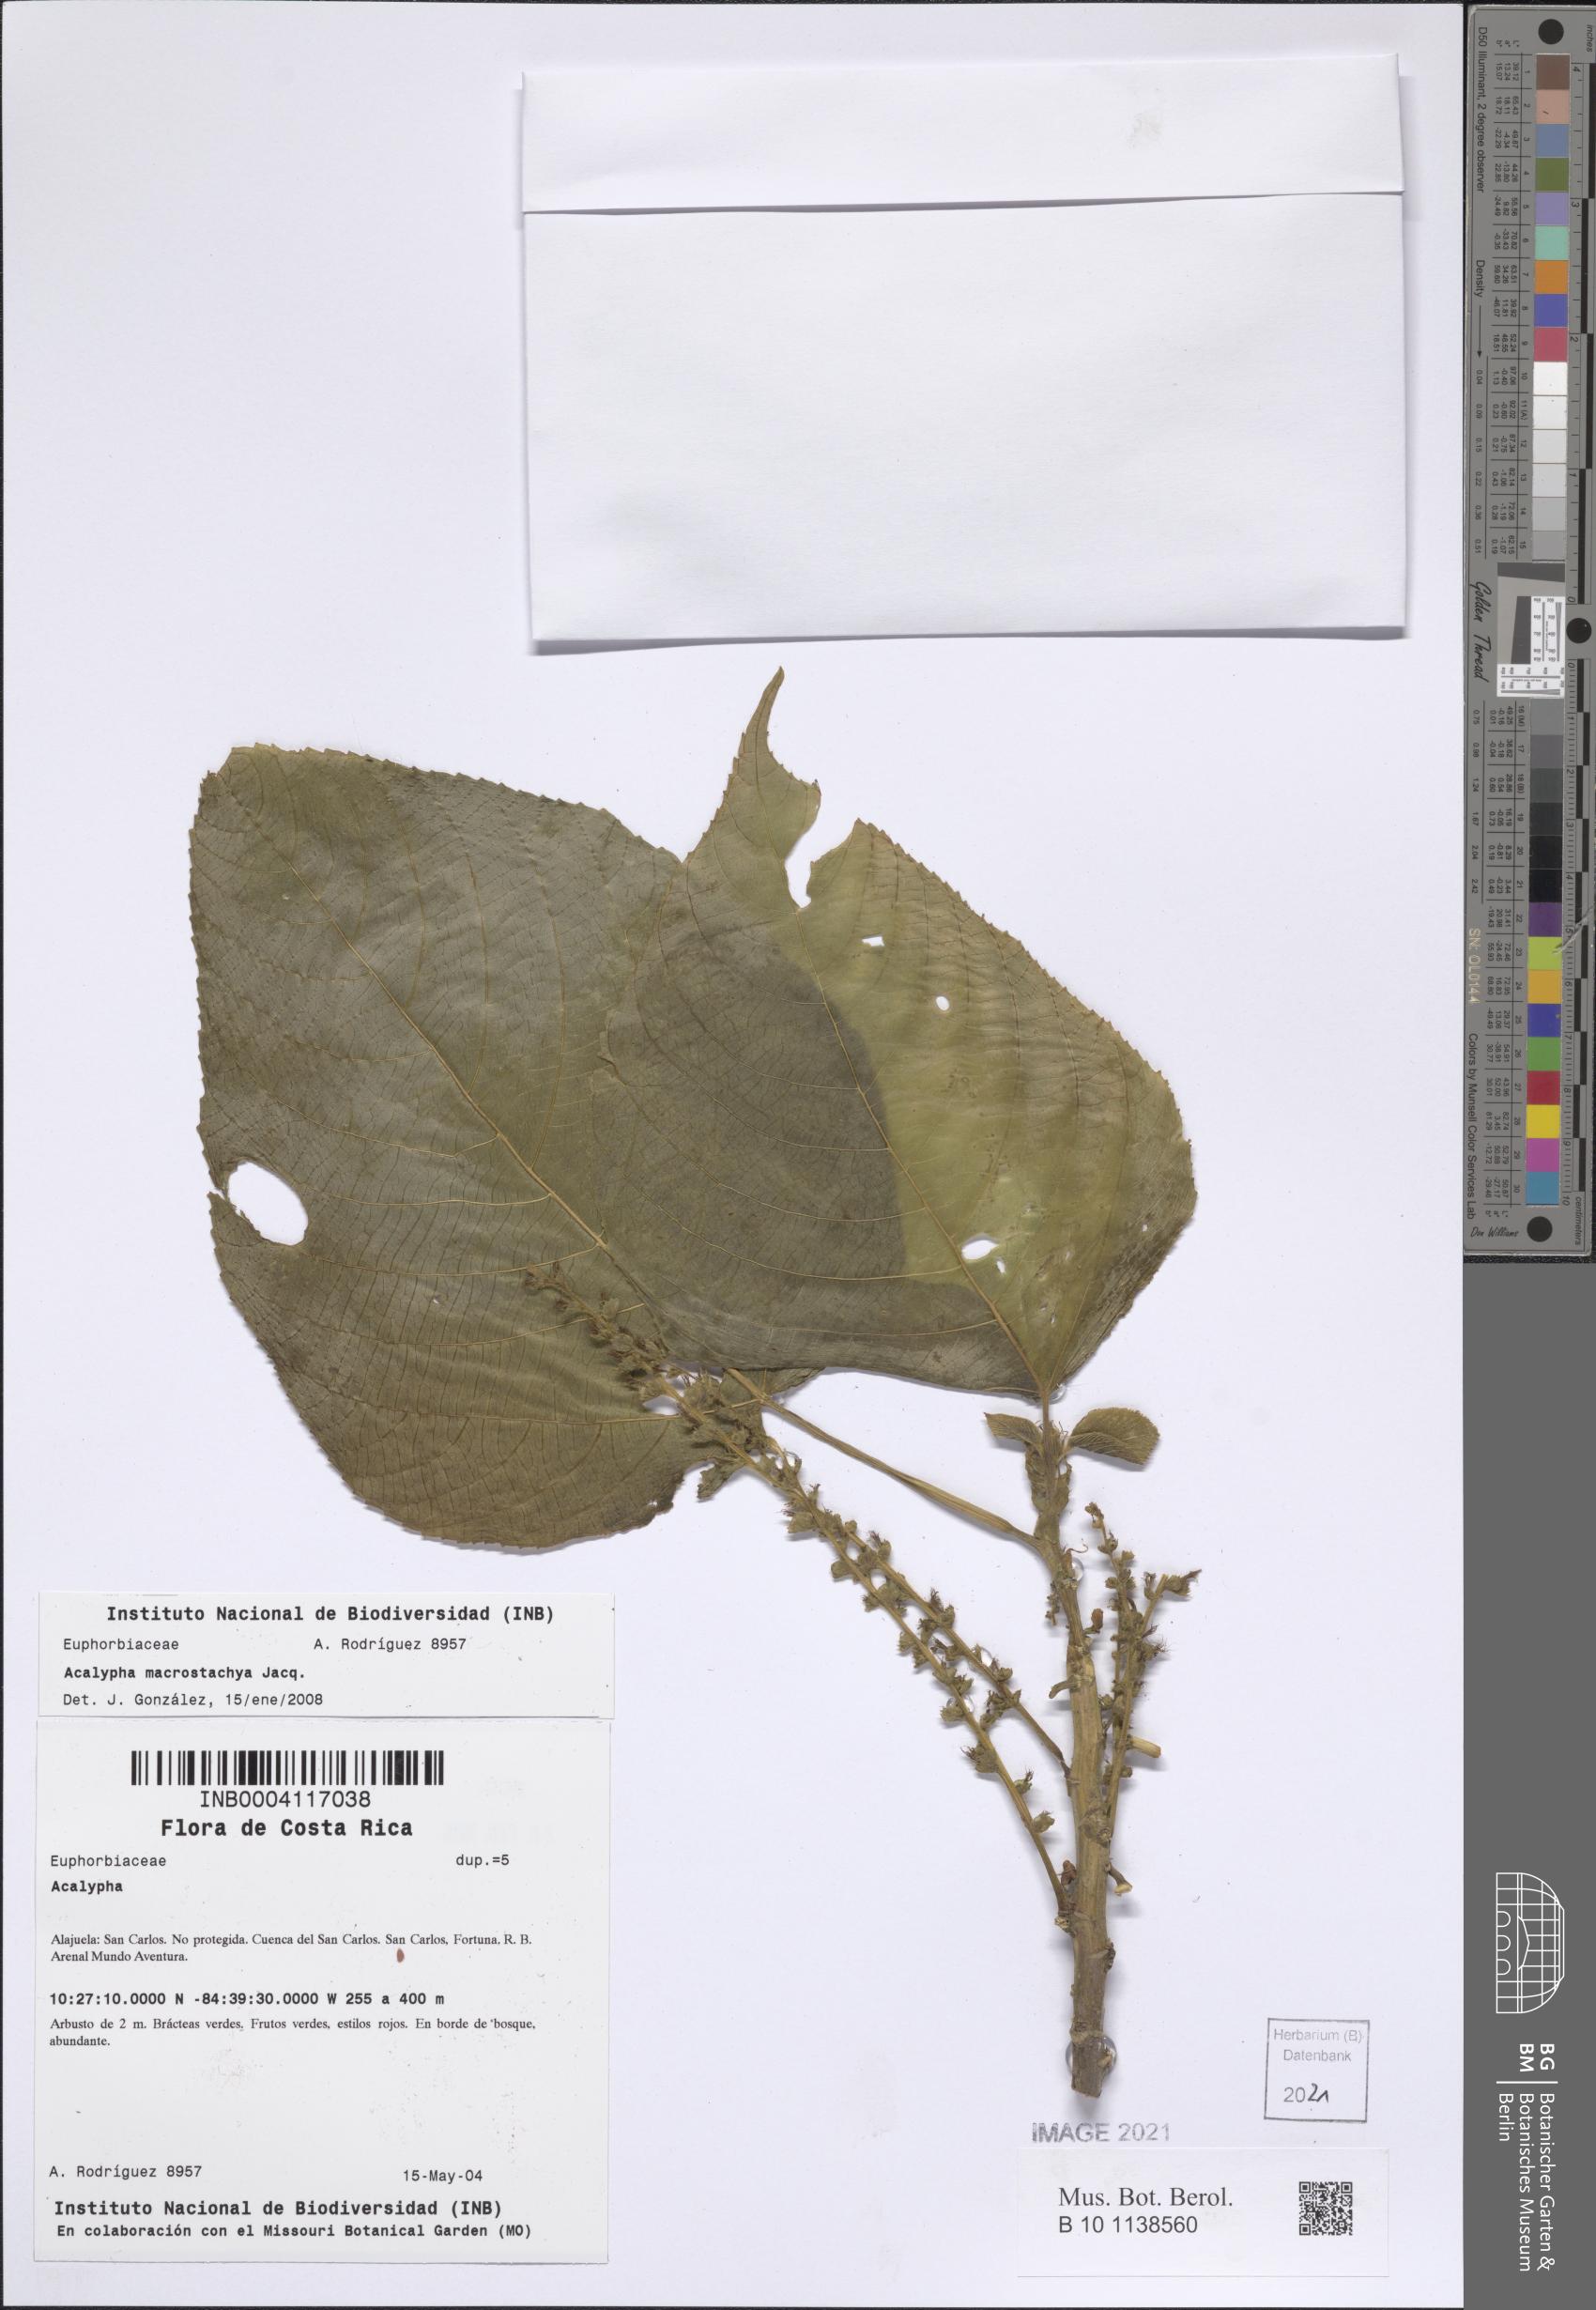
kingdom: Plantae
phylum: Tracheophyta
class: Magnoliopsida
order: Malpighiales
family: Euphorbiaceae
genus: Acalypha
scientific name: Acalypha macrostachya
